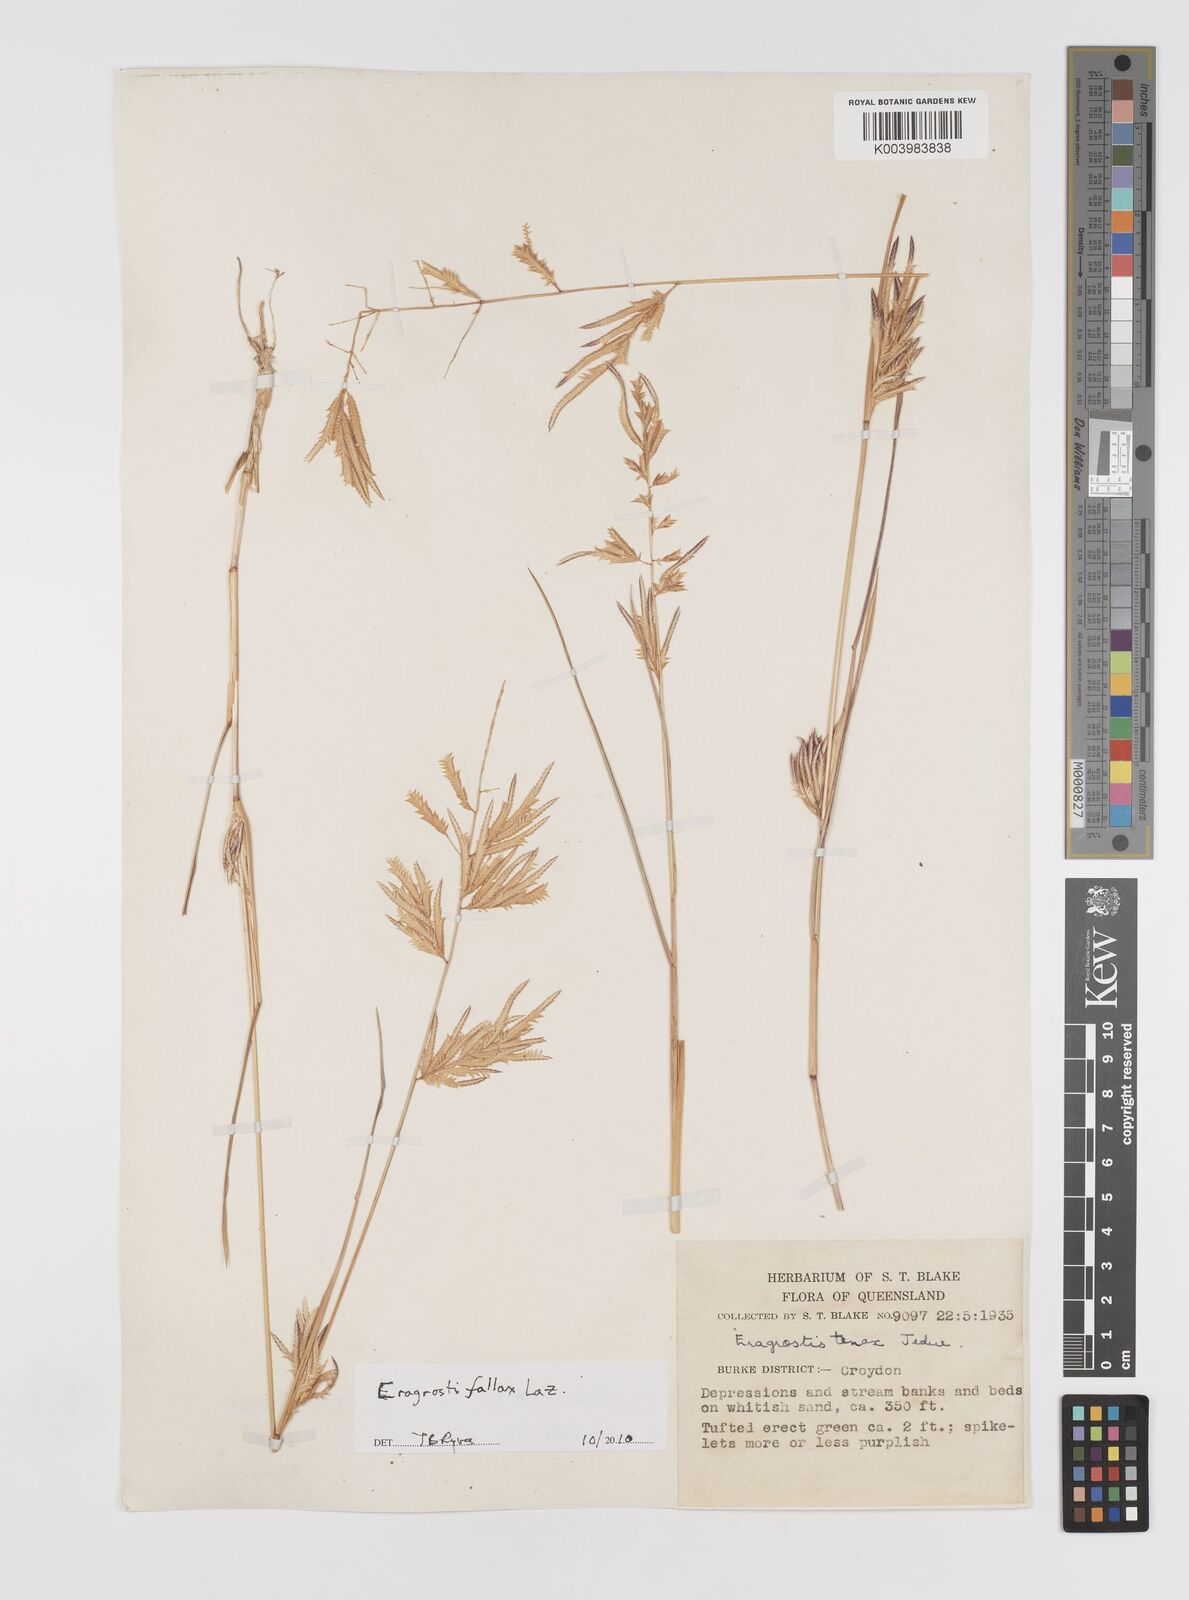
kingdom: Plantae
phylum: Tracheophyta
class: Liliopsida
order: Poales
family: Poaceae
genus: Eragrostis
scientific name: Eragrostis fallax
